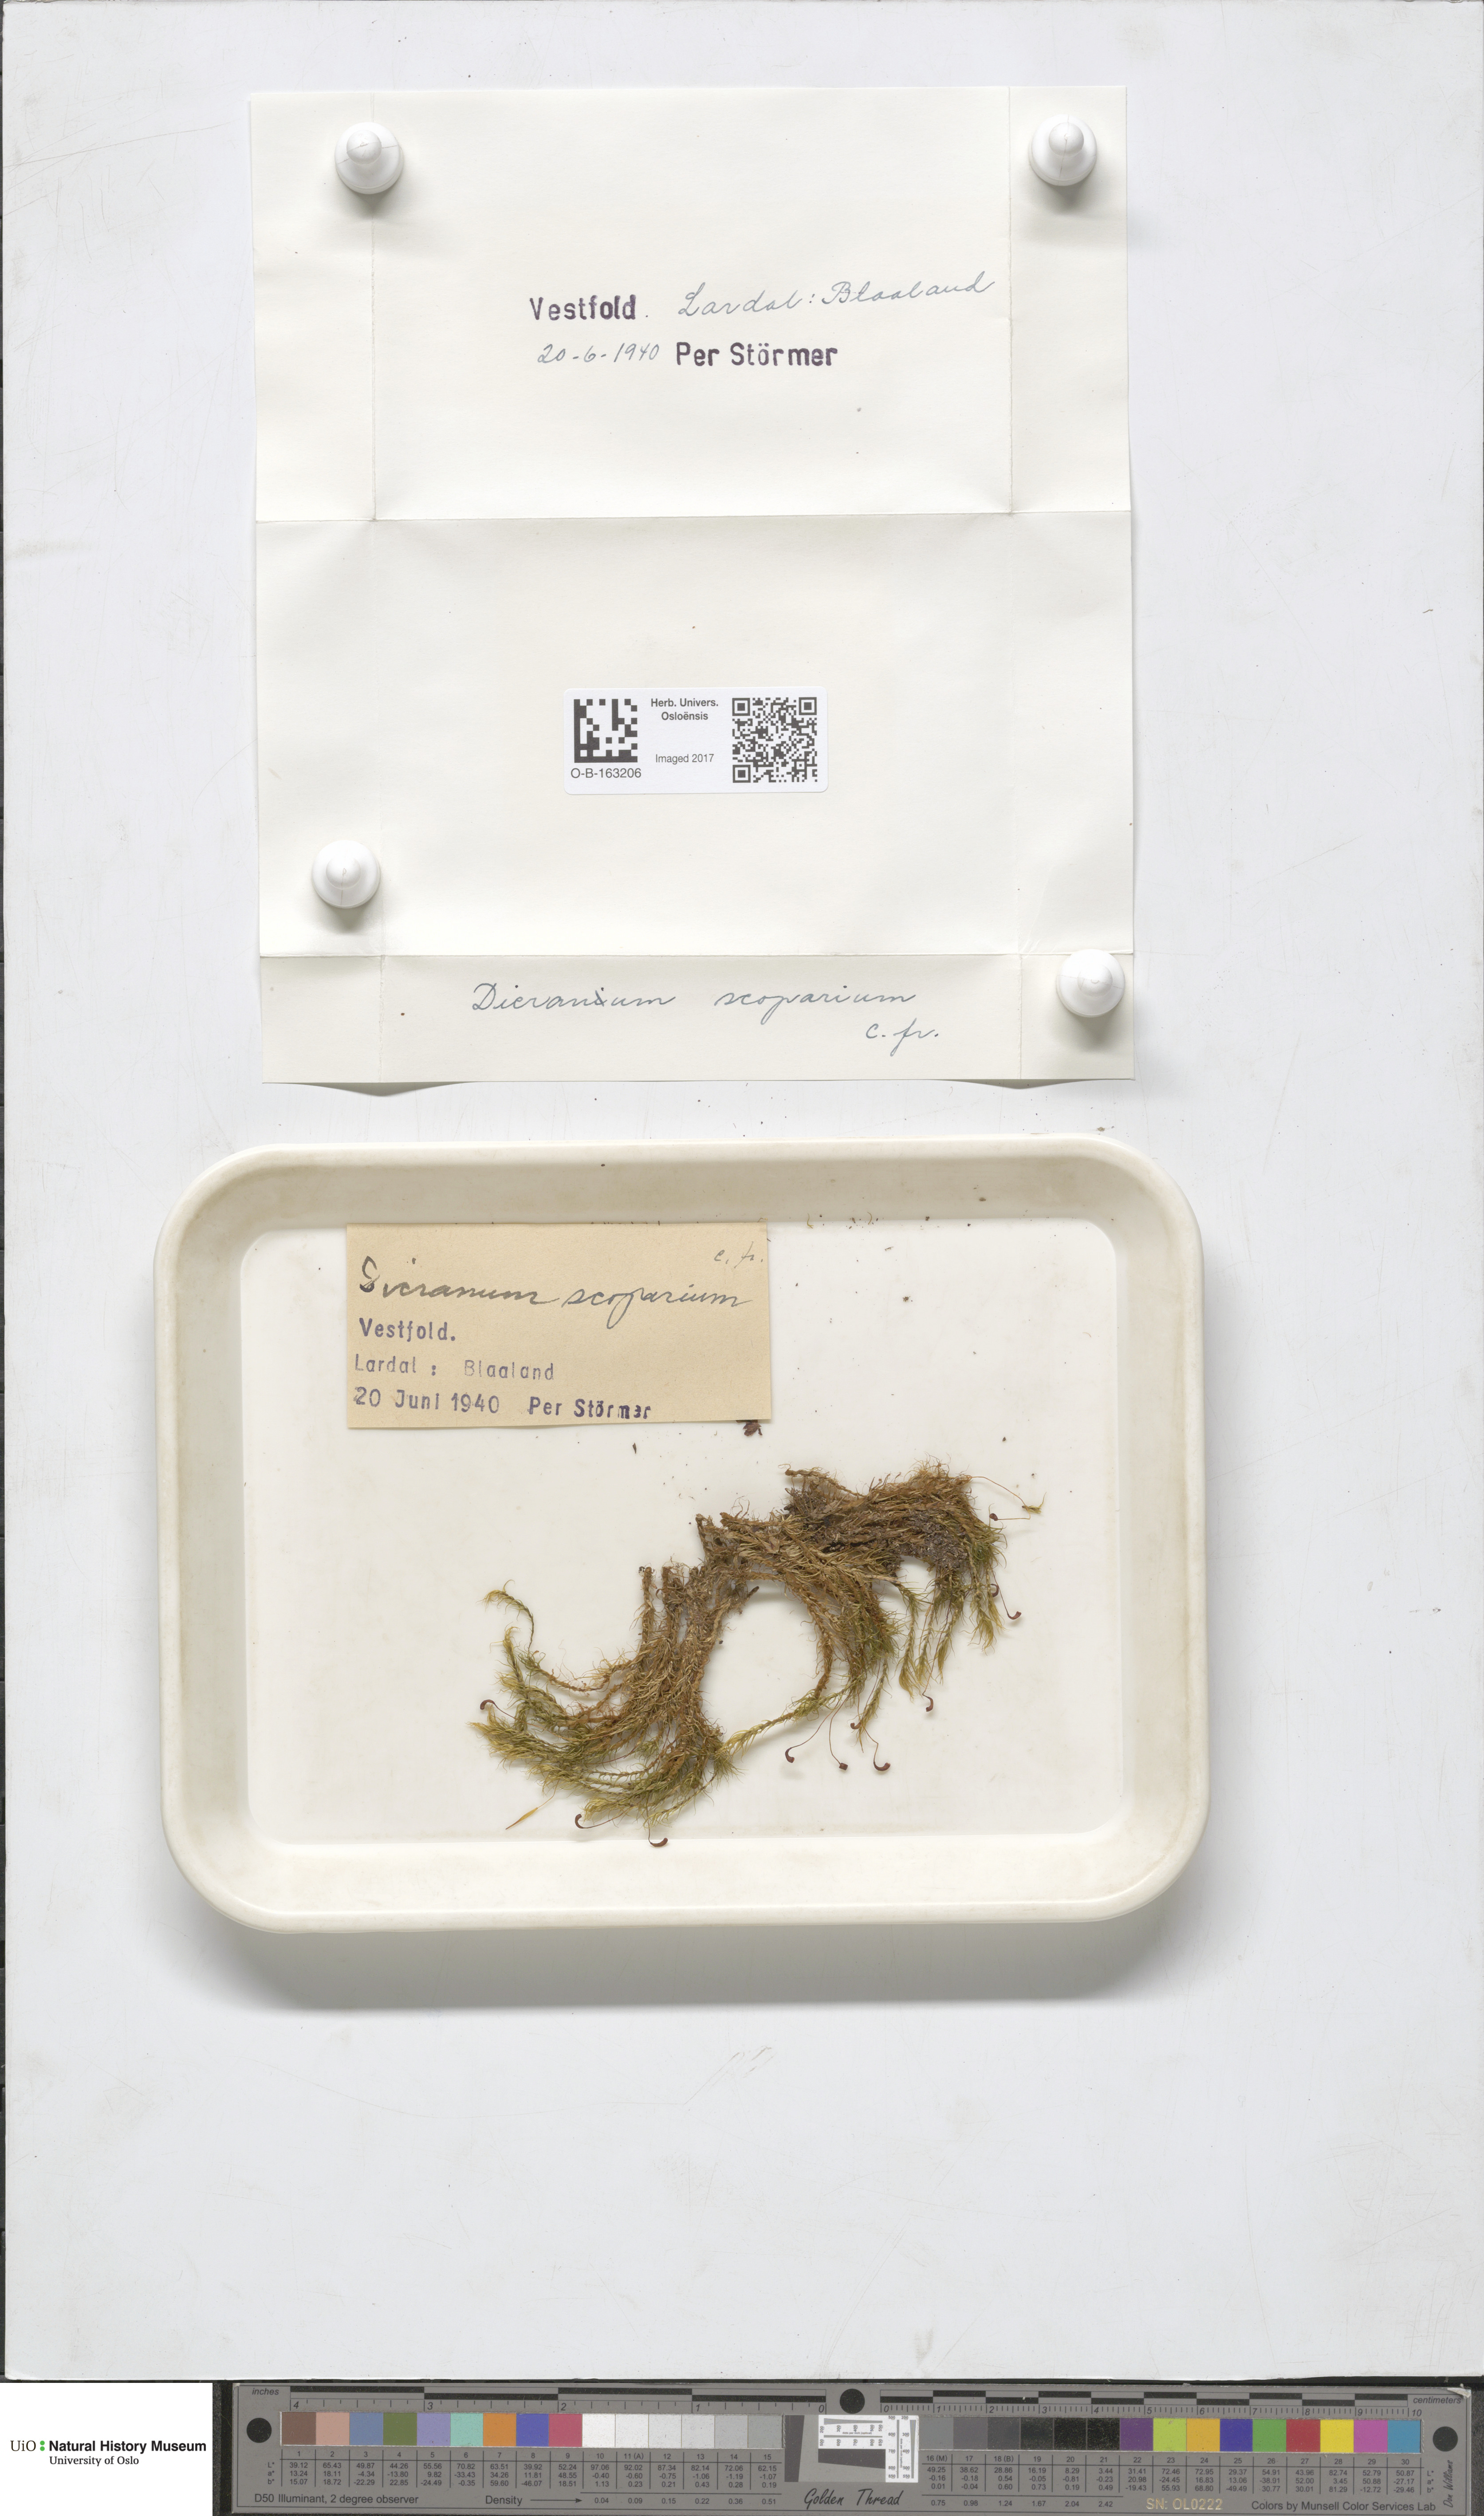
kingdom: Plantae
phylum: Bryophyta
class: Bryopsida
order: Dicranales
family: Dicranaceae
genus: Dicranum
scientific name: Dicranum scoparium
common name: Broom fork-moss
